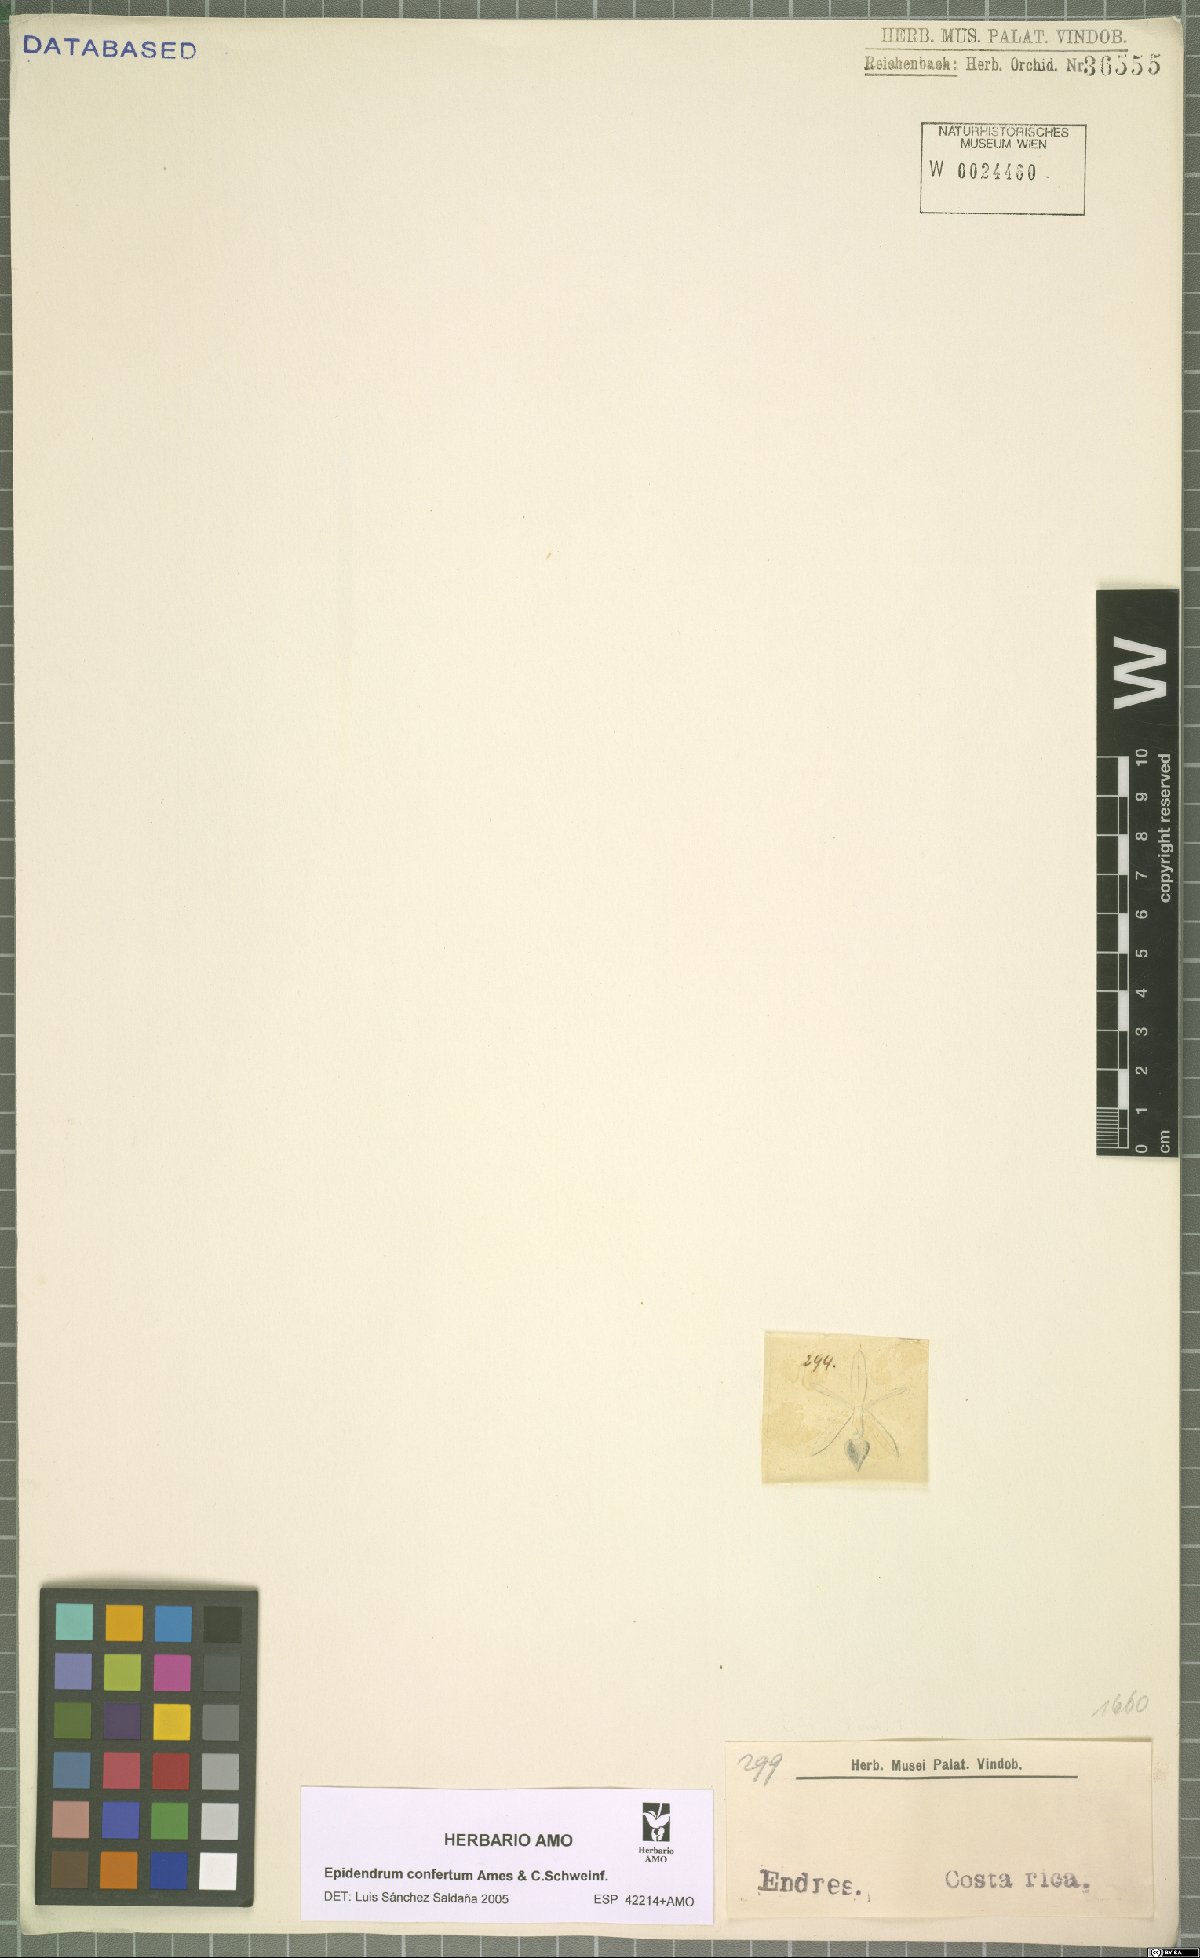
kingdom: Plantae
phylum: Tracheophyta
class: Liliopsida
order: Asparagales
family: Orchidaceae
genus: Epidendrum
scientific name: Epidendrum confertum
